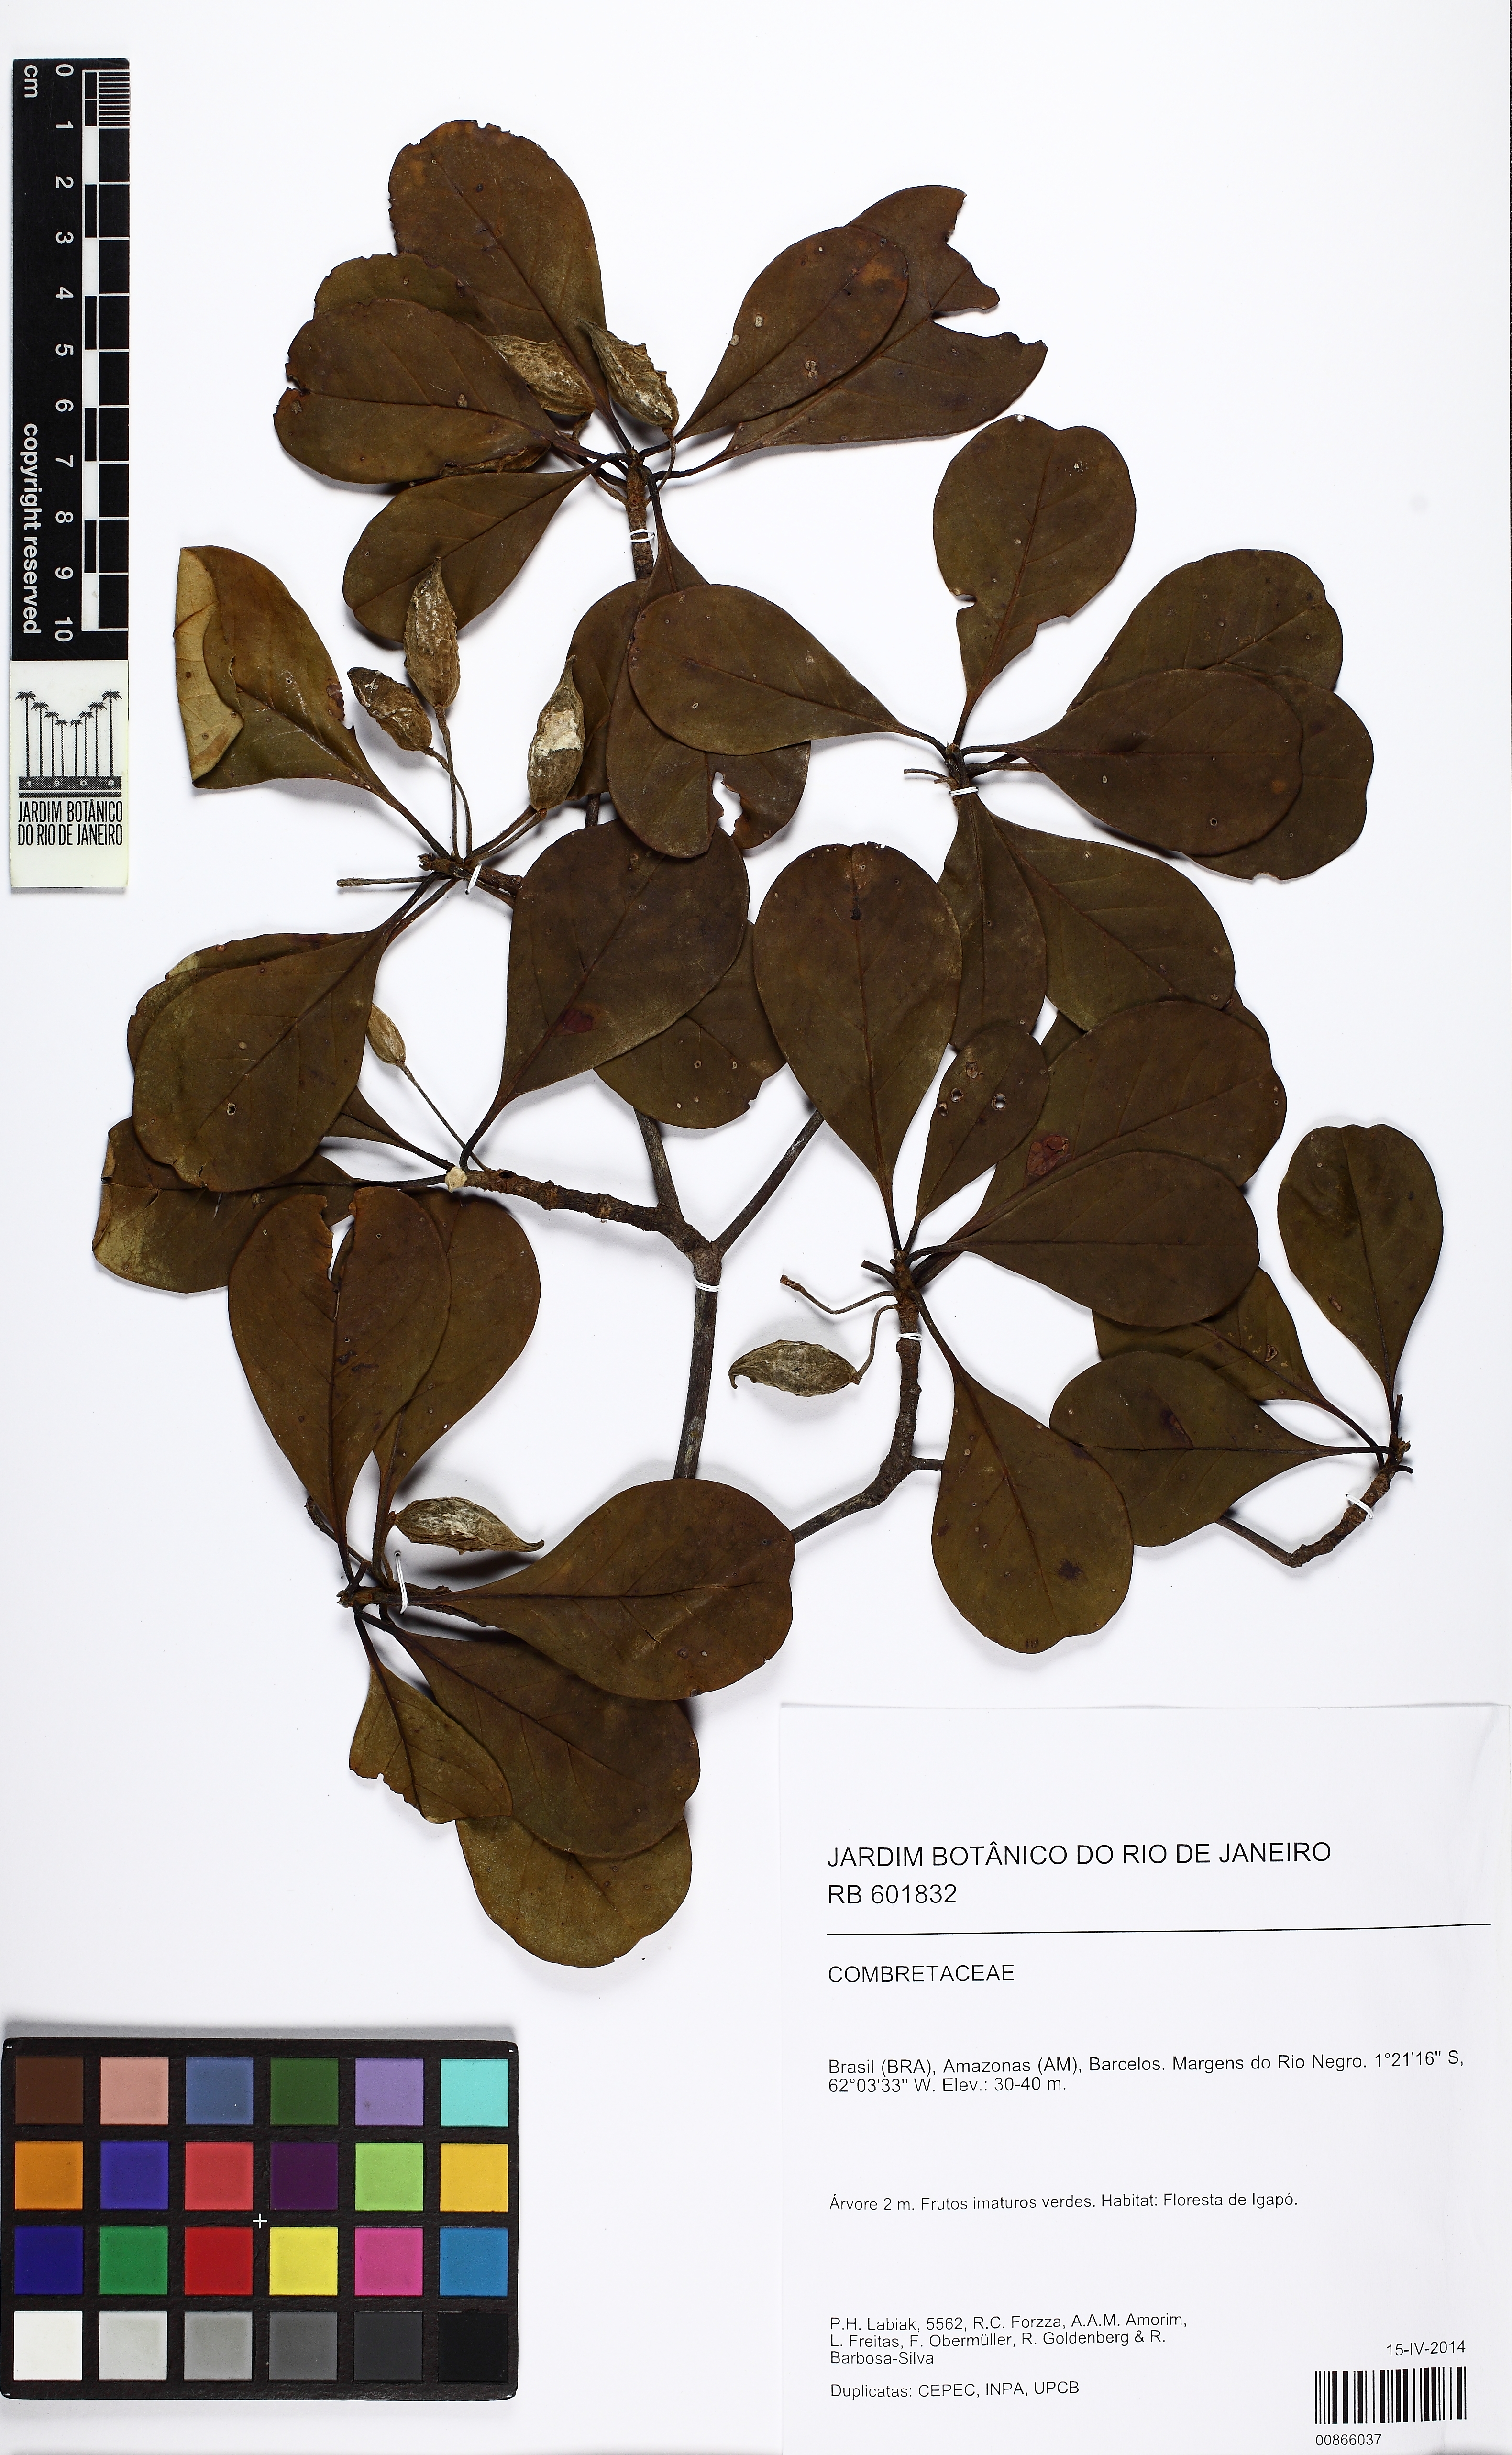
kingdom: Plantae
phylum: Tracheophyta
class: Magnoliopsida
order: Myrtales
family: Combretaceae
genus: Terminalia
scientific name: Terminalia ochroprumna
